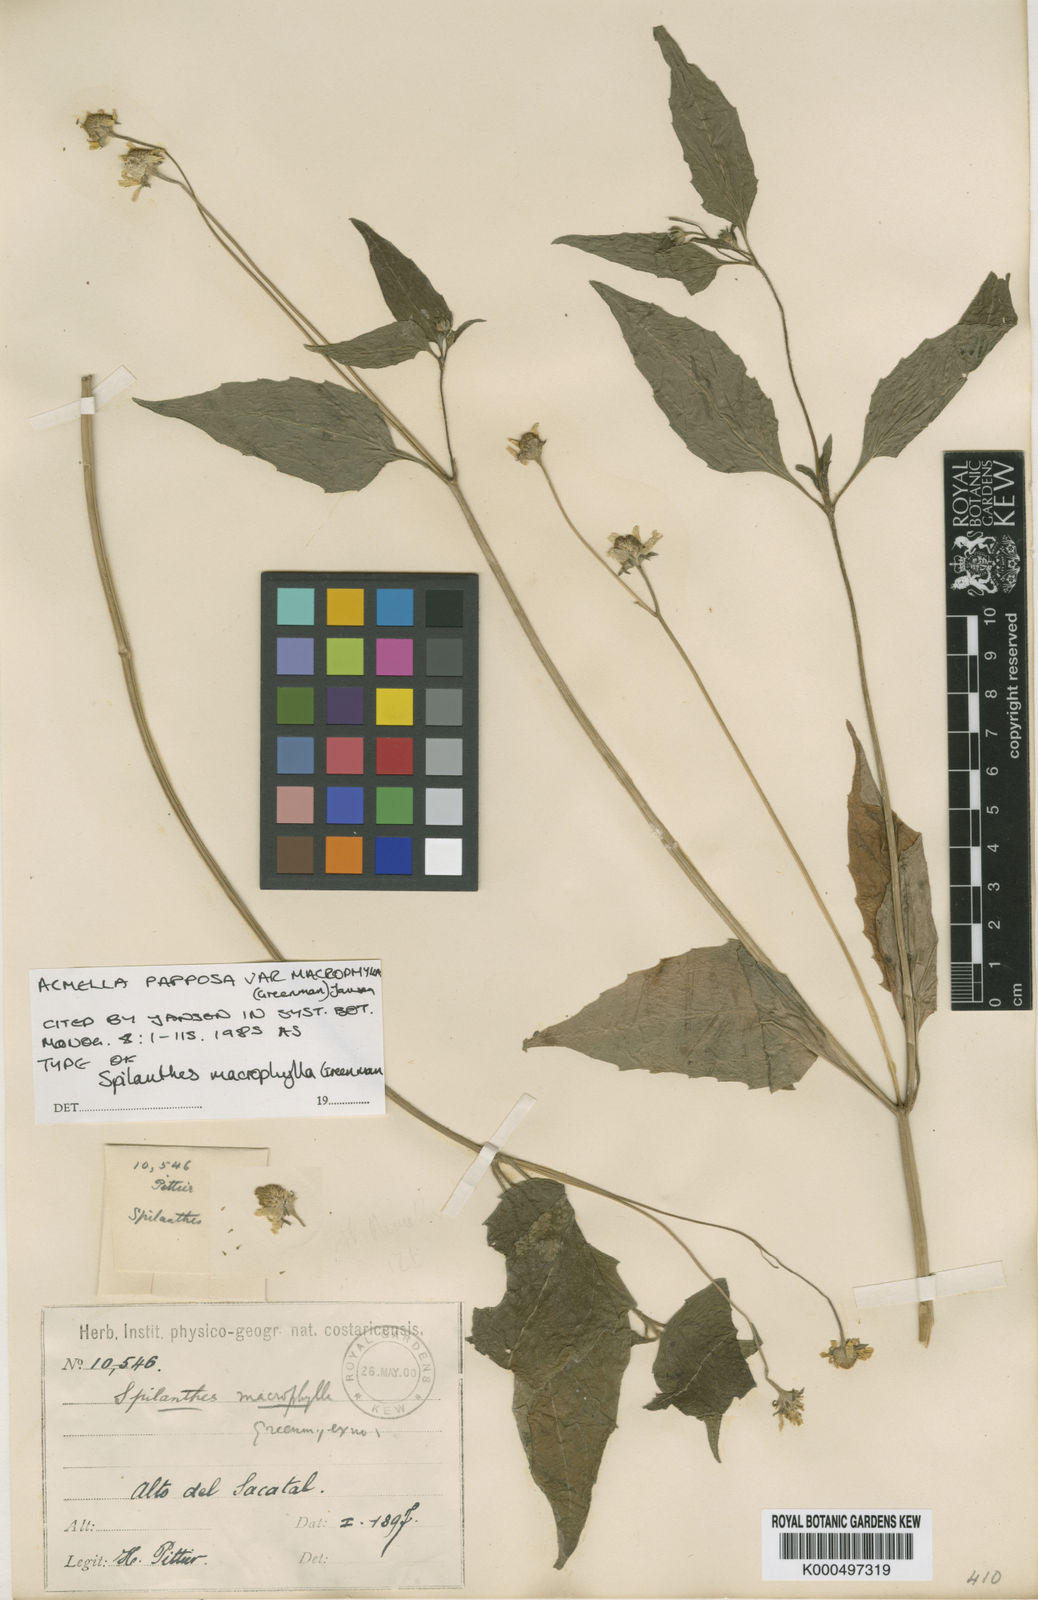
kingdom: Plantae
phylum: Tracheophyta
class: Magnoliopsida
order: Asterales
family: Asteraceae
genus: Acmella
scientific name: Acmella papposa
